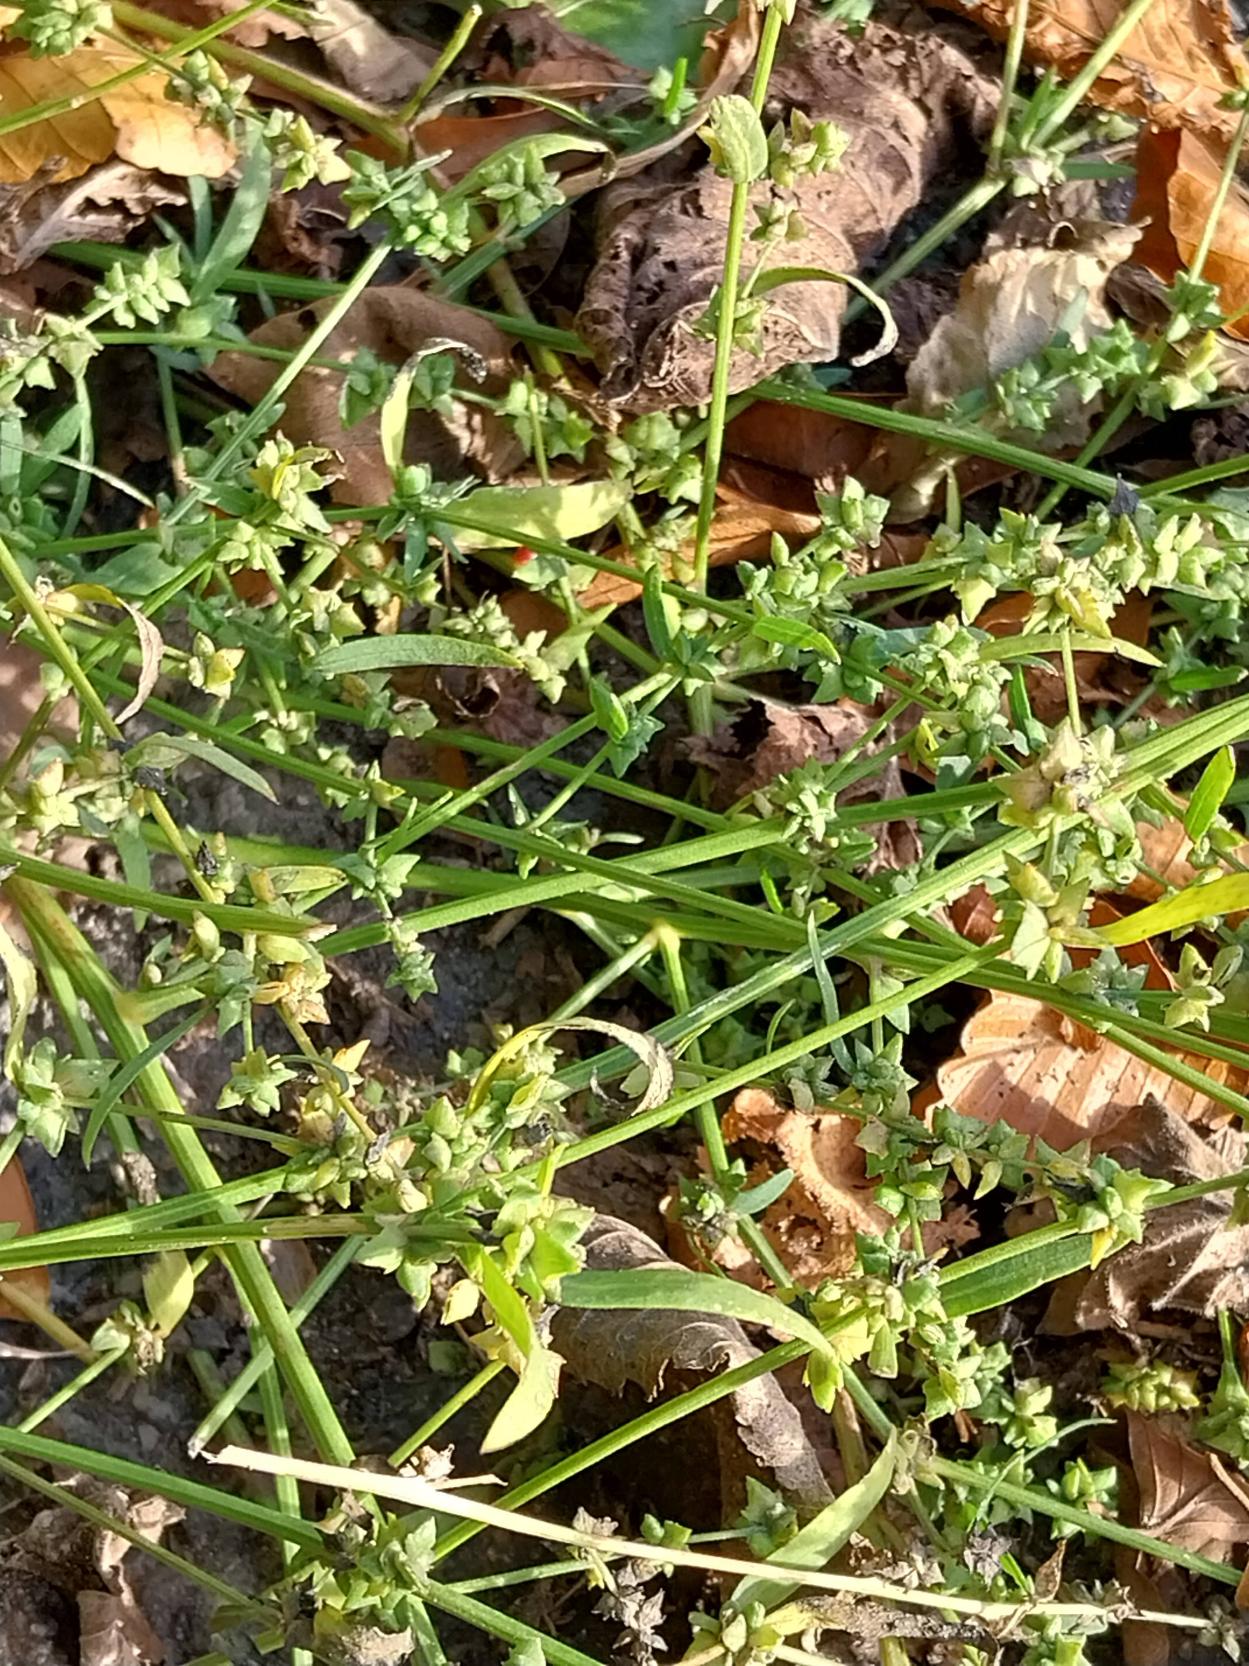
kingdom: Plantae
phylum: Tracheophyta
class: Magnoliopsida
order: Caryophyllales
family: Amaranthaceae
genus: Atriplex
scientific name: Atriplex patula
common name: Svine-mælde
